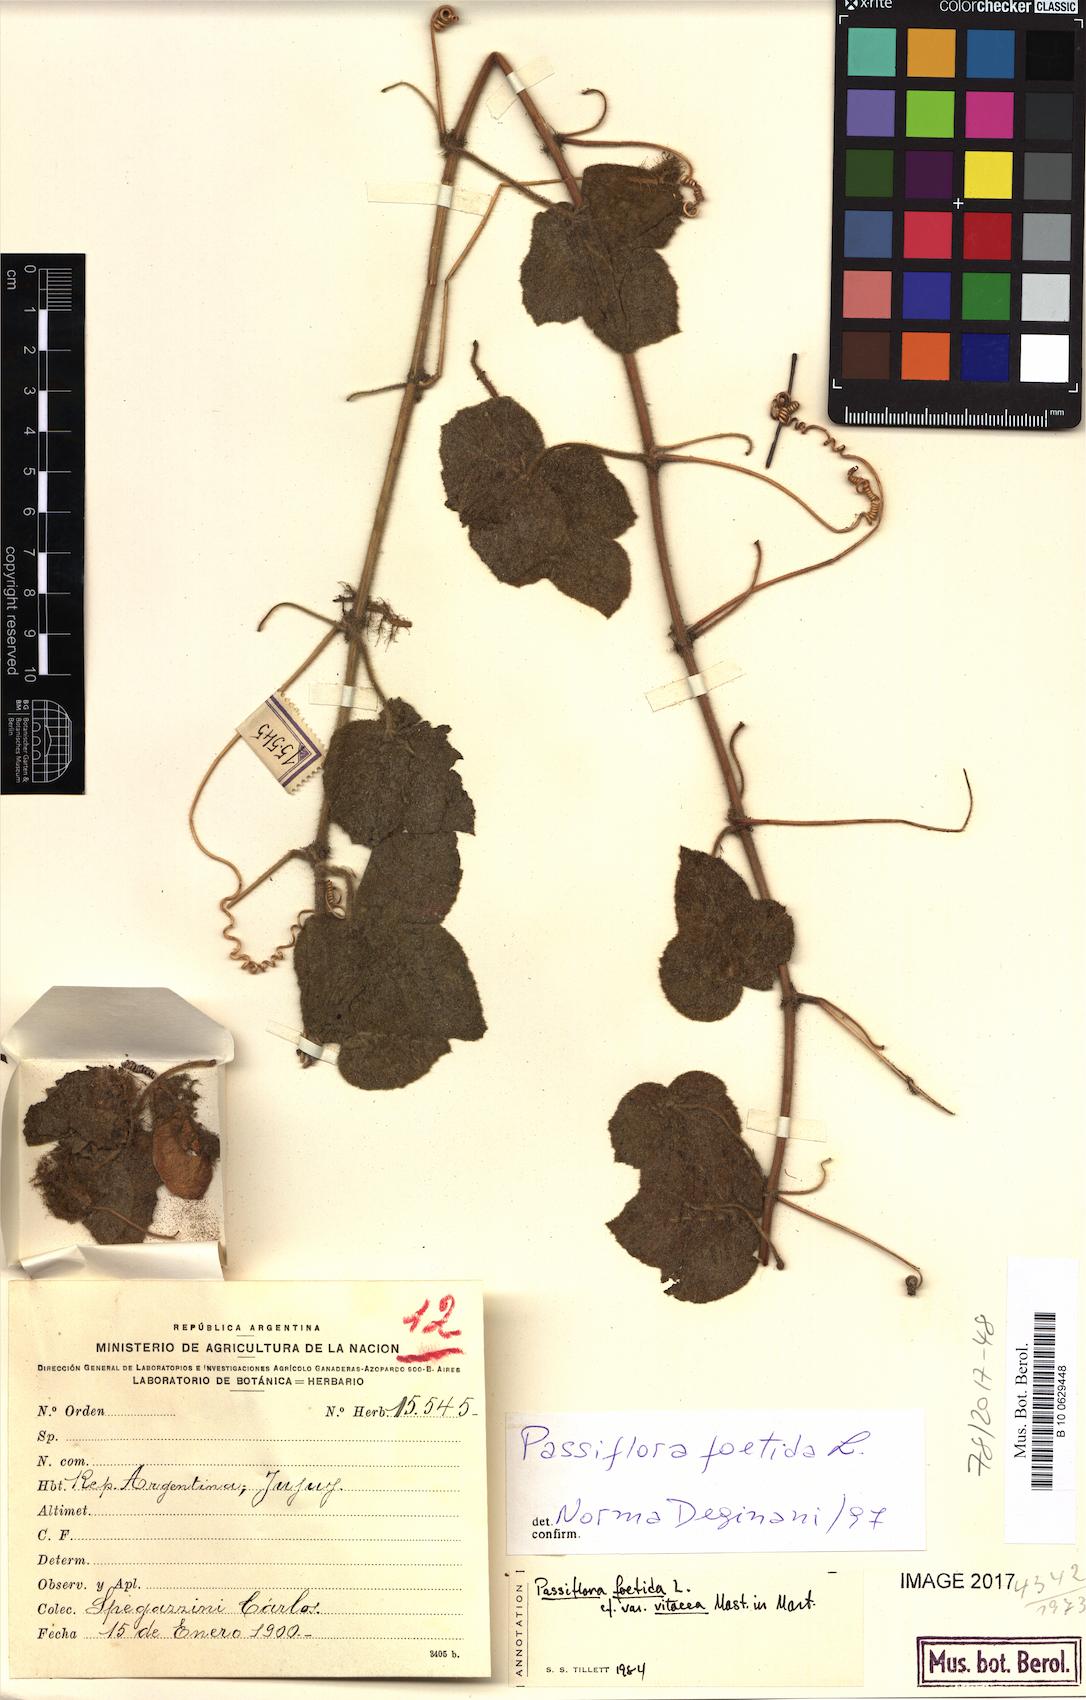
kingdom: Plantae
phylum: Tracheophyta
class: Magnoliopsida
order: Malpighiales
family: Passifloraceae
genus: Passiflora
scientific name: Passiflora foetida
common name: Fetid passionflower
